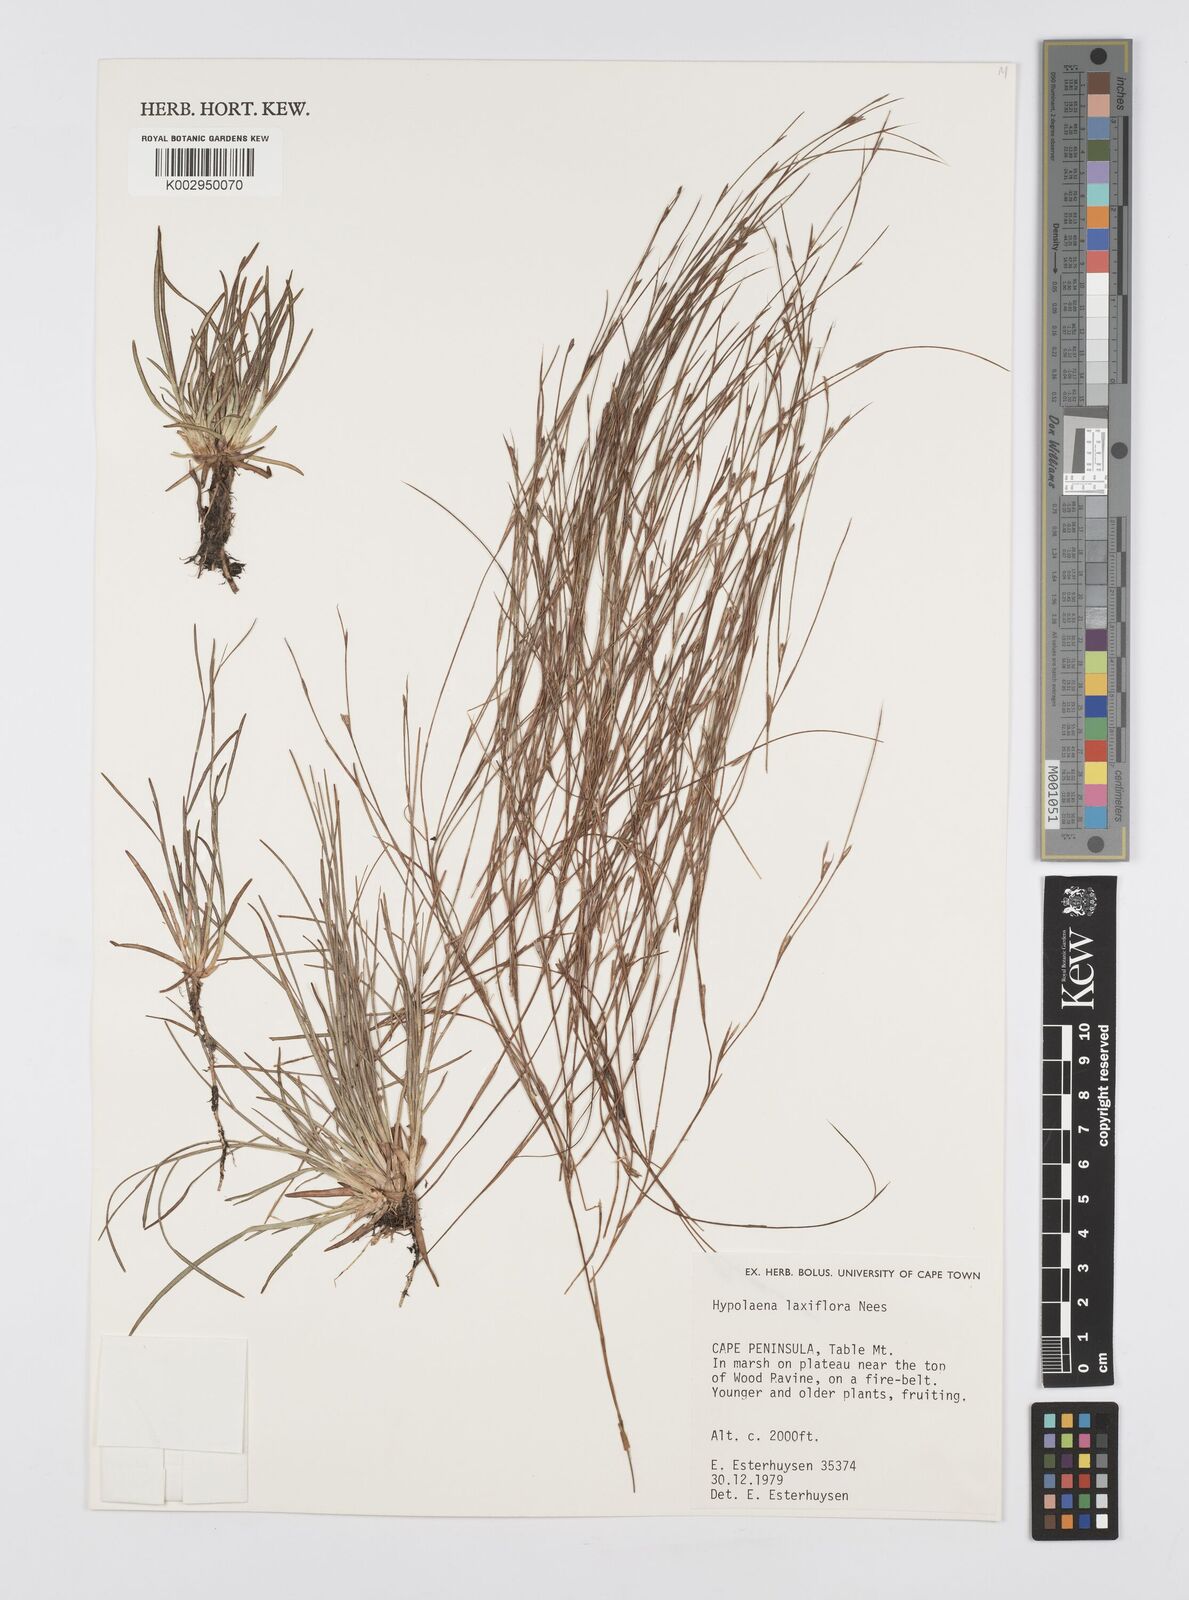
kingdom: Plantae
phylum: Tracheophyta
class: Liliopsida
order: Poales
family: Restionaceae
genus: Anthochortus
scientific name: Anthochortus laxiflorus
